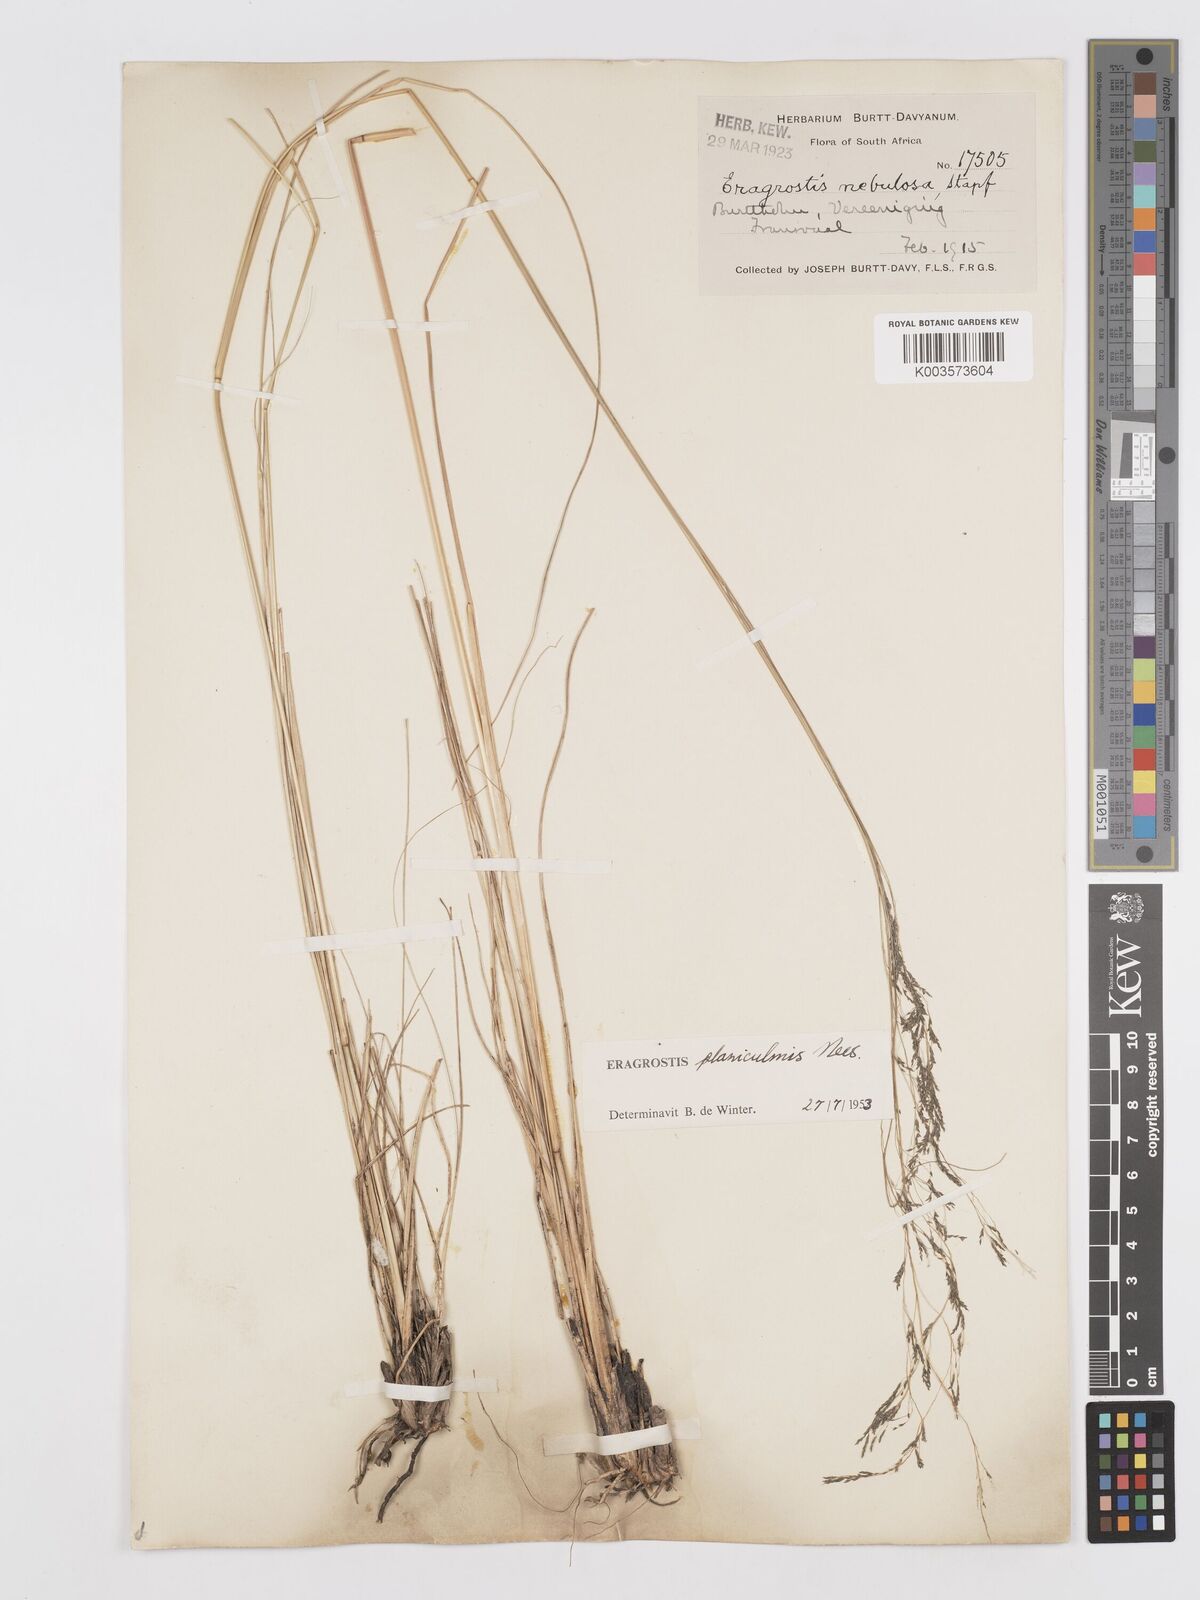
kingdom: Plantae
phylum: Tracheophyta
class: Liliopsida
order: Poales
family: Poaceae
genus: Eragrostis
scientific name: Eragrostis planiculmis
